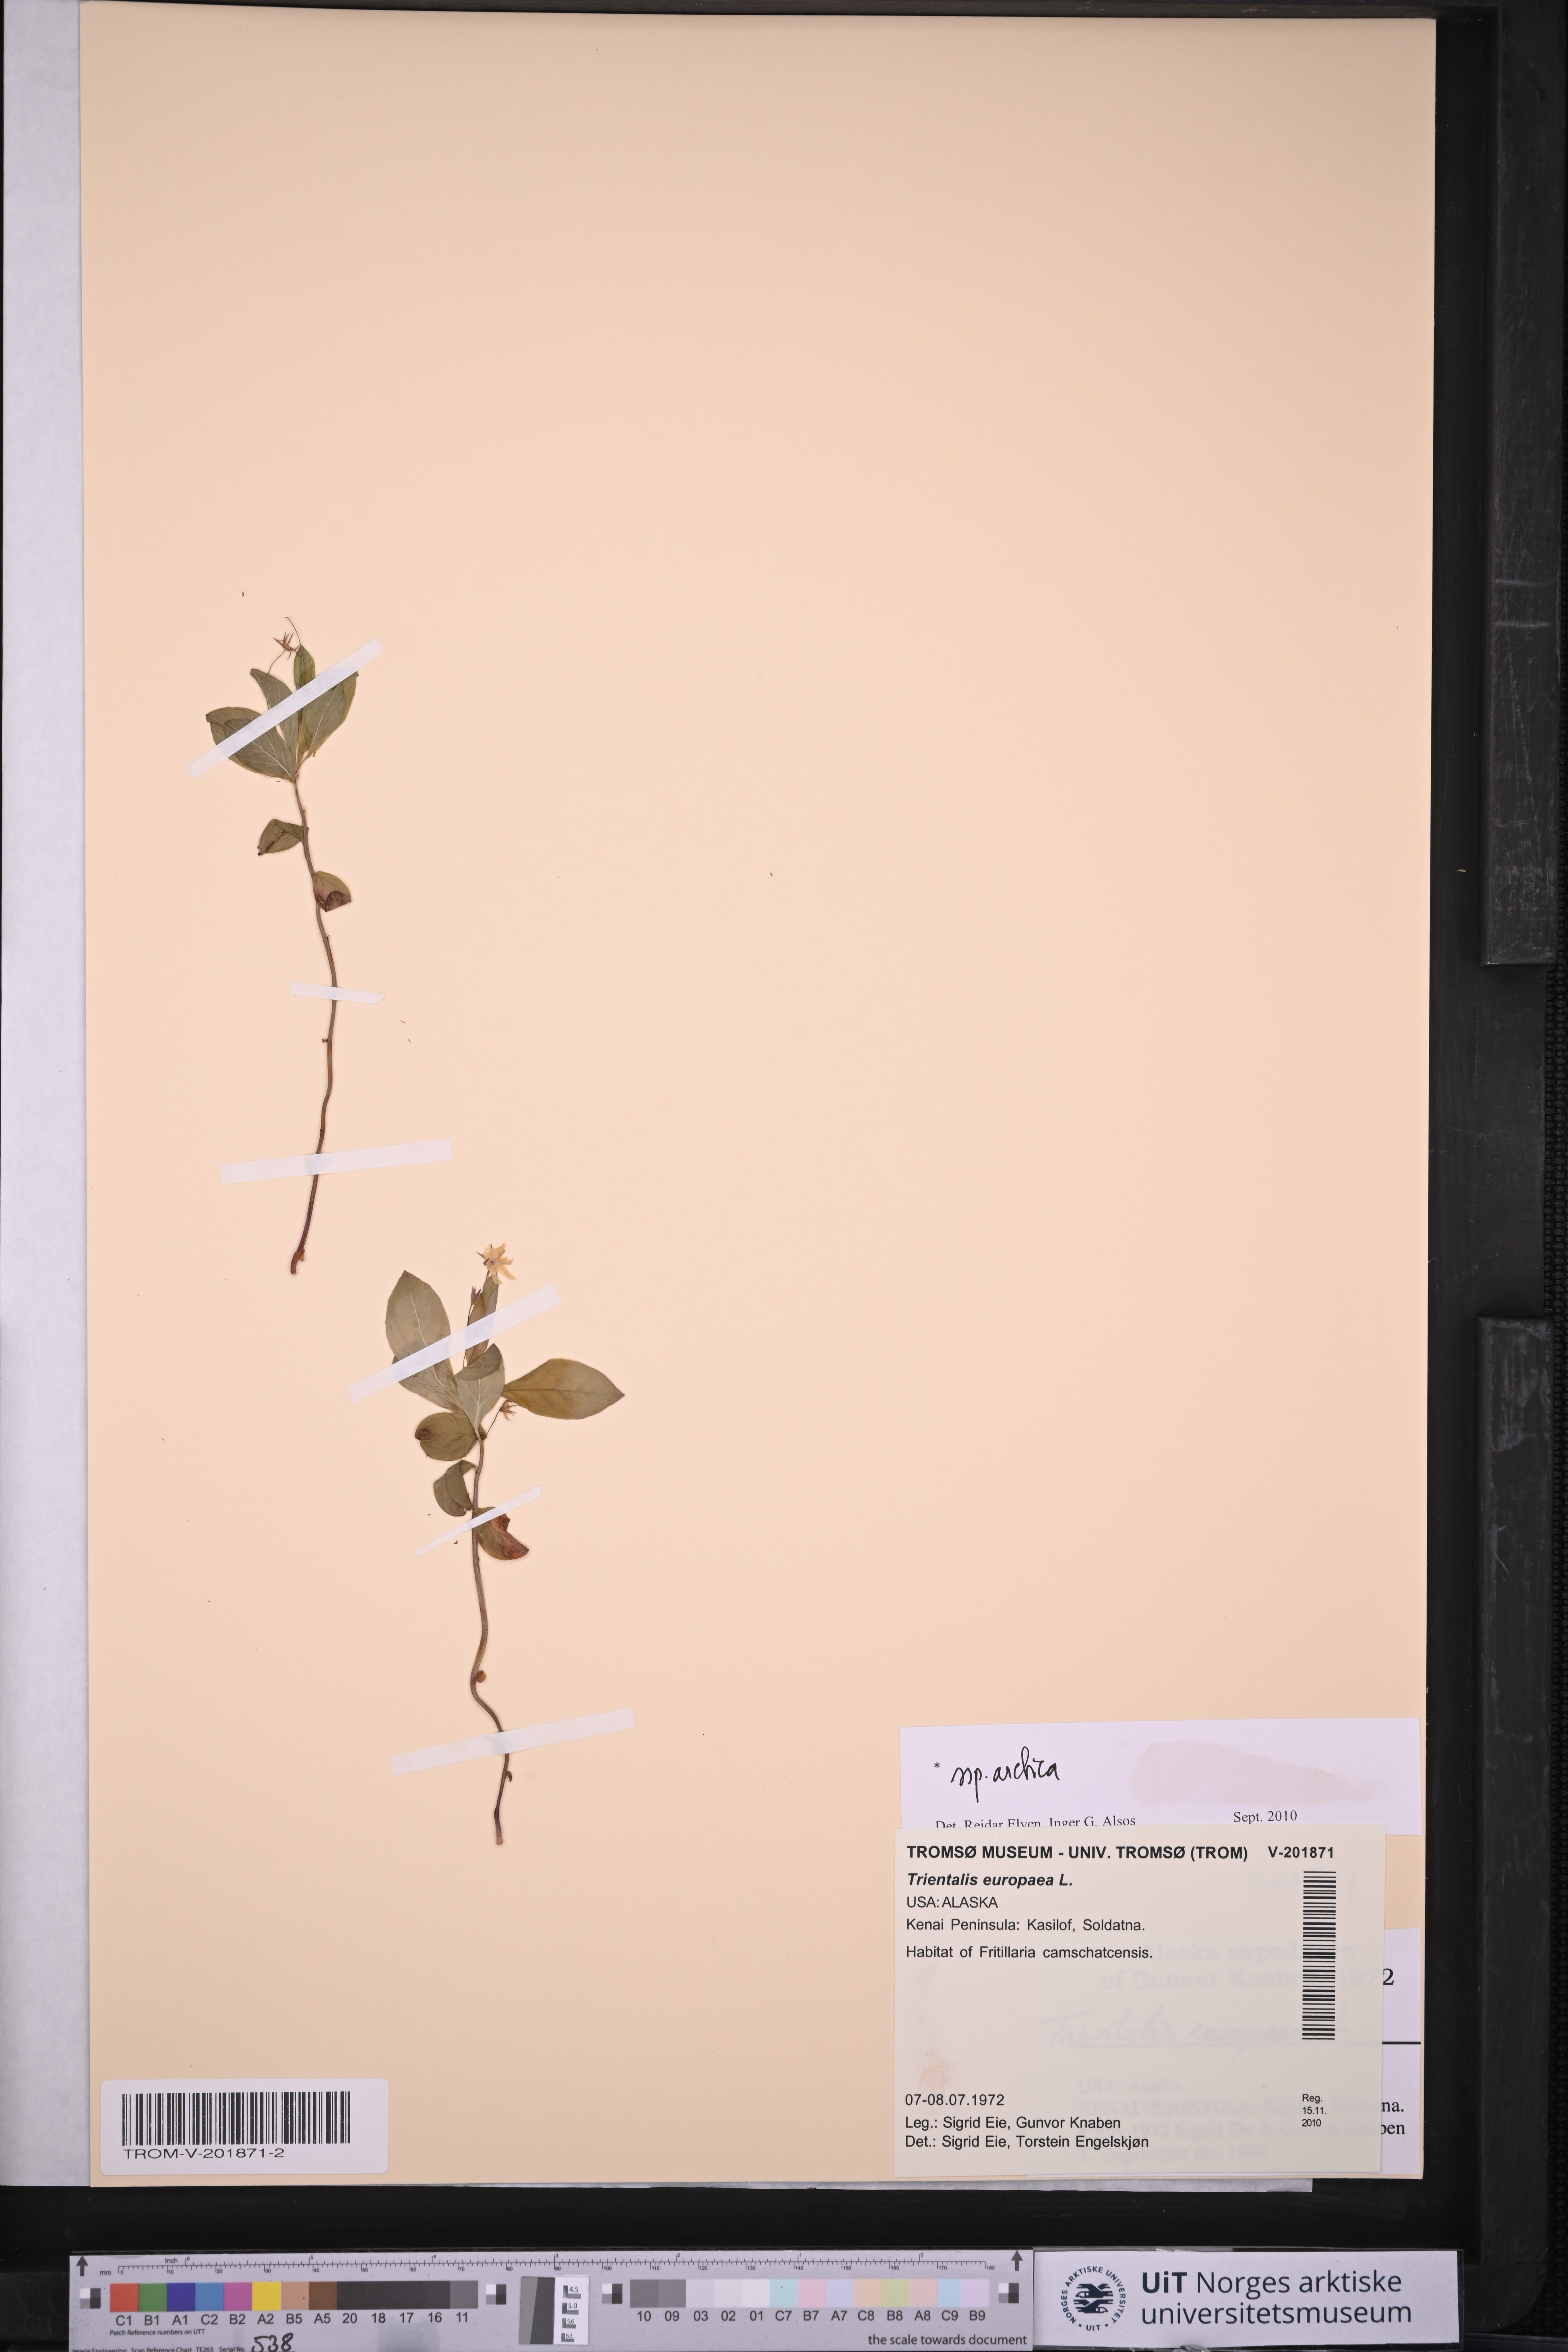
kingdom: Plantae
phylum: Tracheophyta
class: Magnoliopsida
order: Ericales
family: Primulaceae
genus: Lysimachia
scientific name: Lysimachia europaea
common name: Arctic starflower
